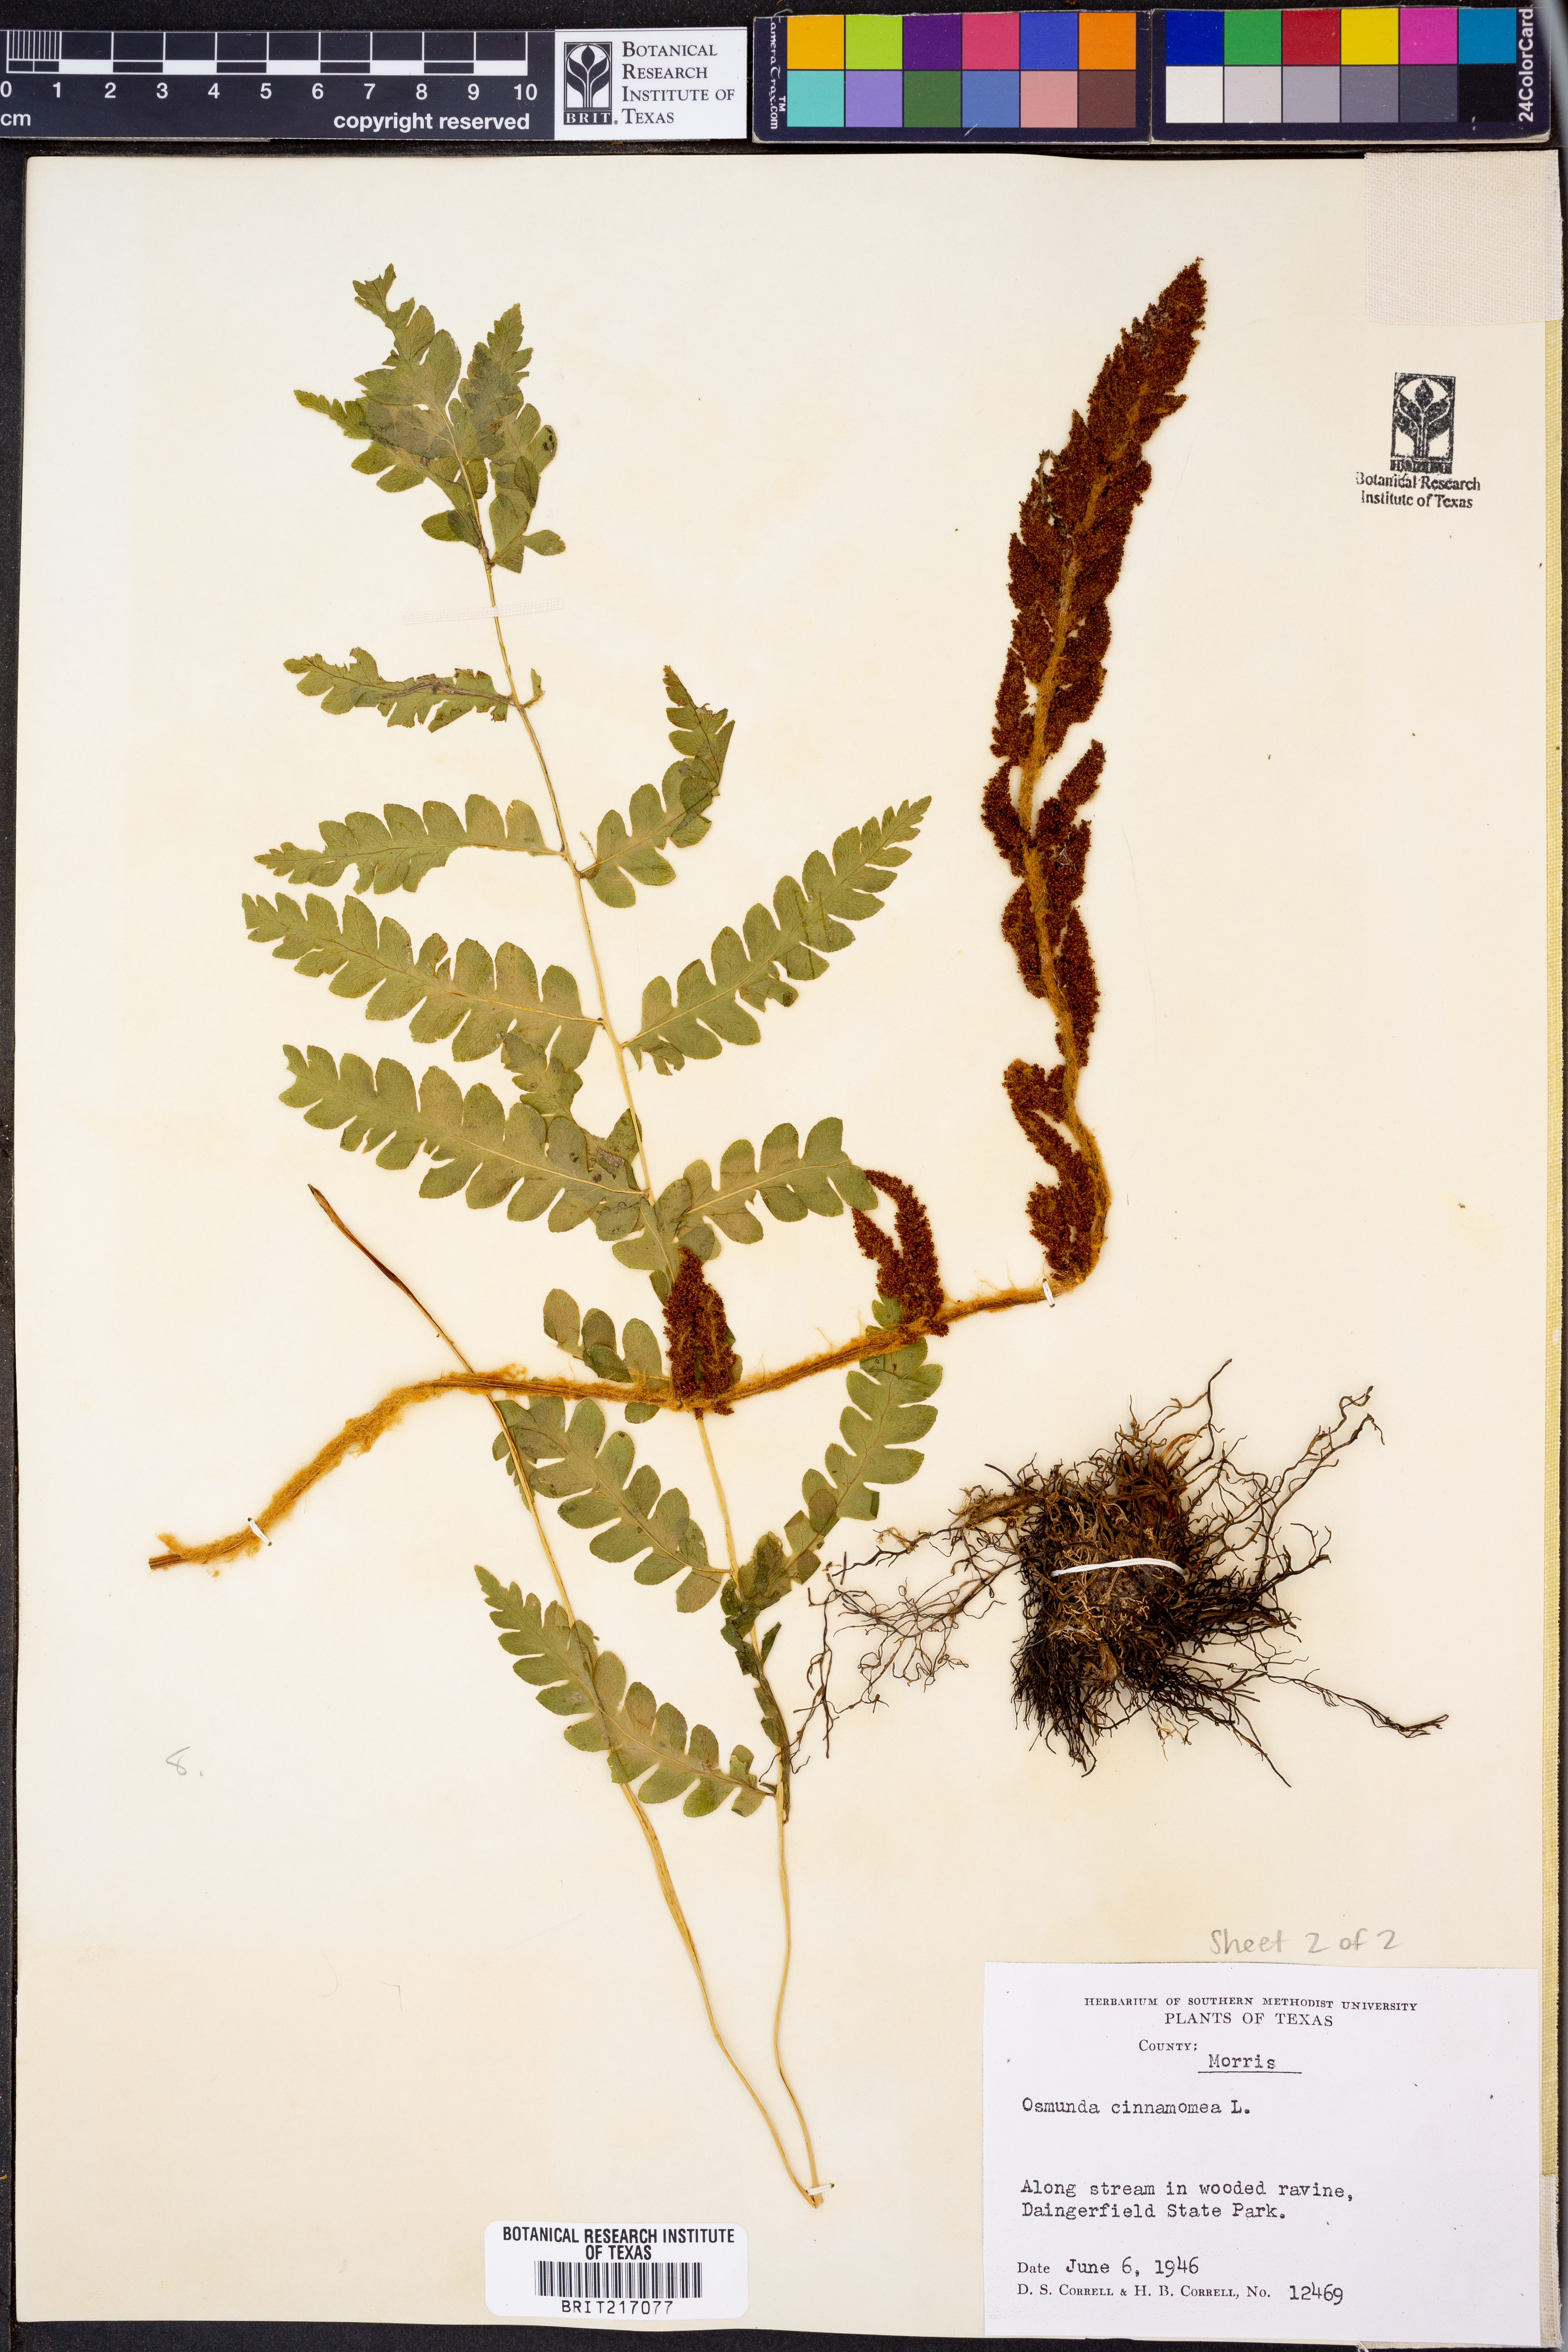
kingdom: Plantae
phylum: Tracheophyta
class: Polypodiopsida
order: Osmundales
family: Osmundaceae
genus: Osmundastrum
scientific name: Osmundastrum cinnamomeum
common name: Cinnamon fern
